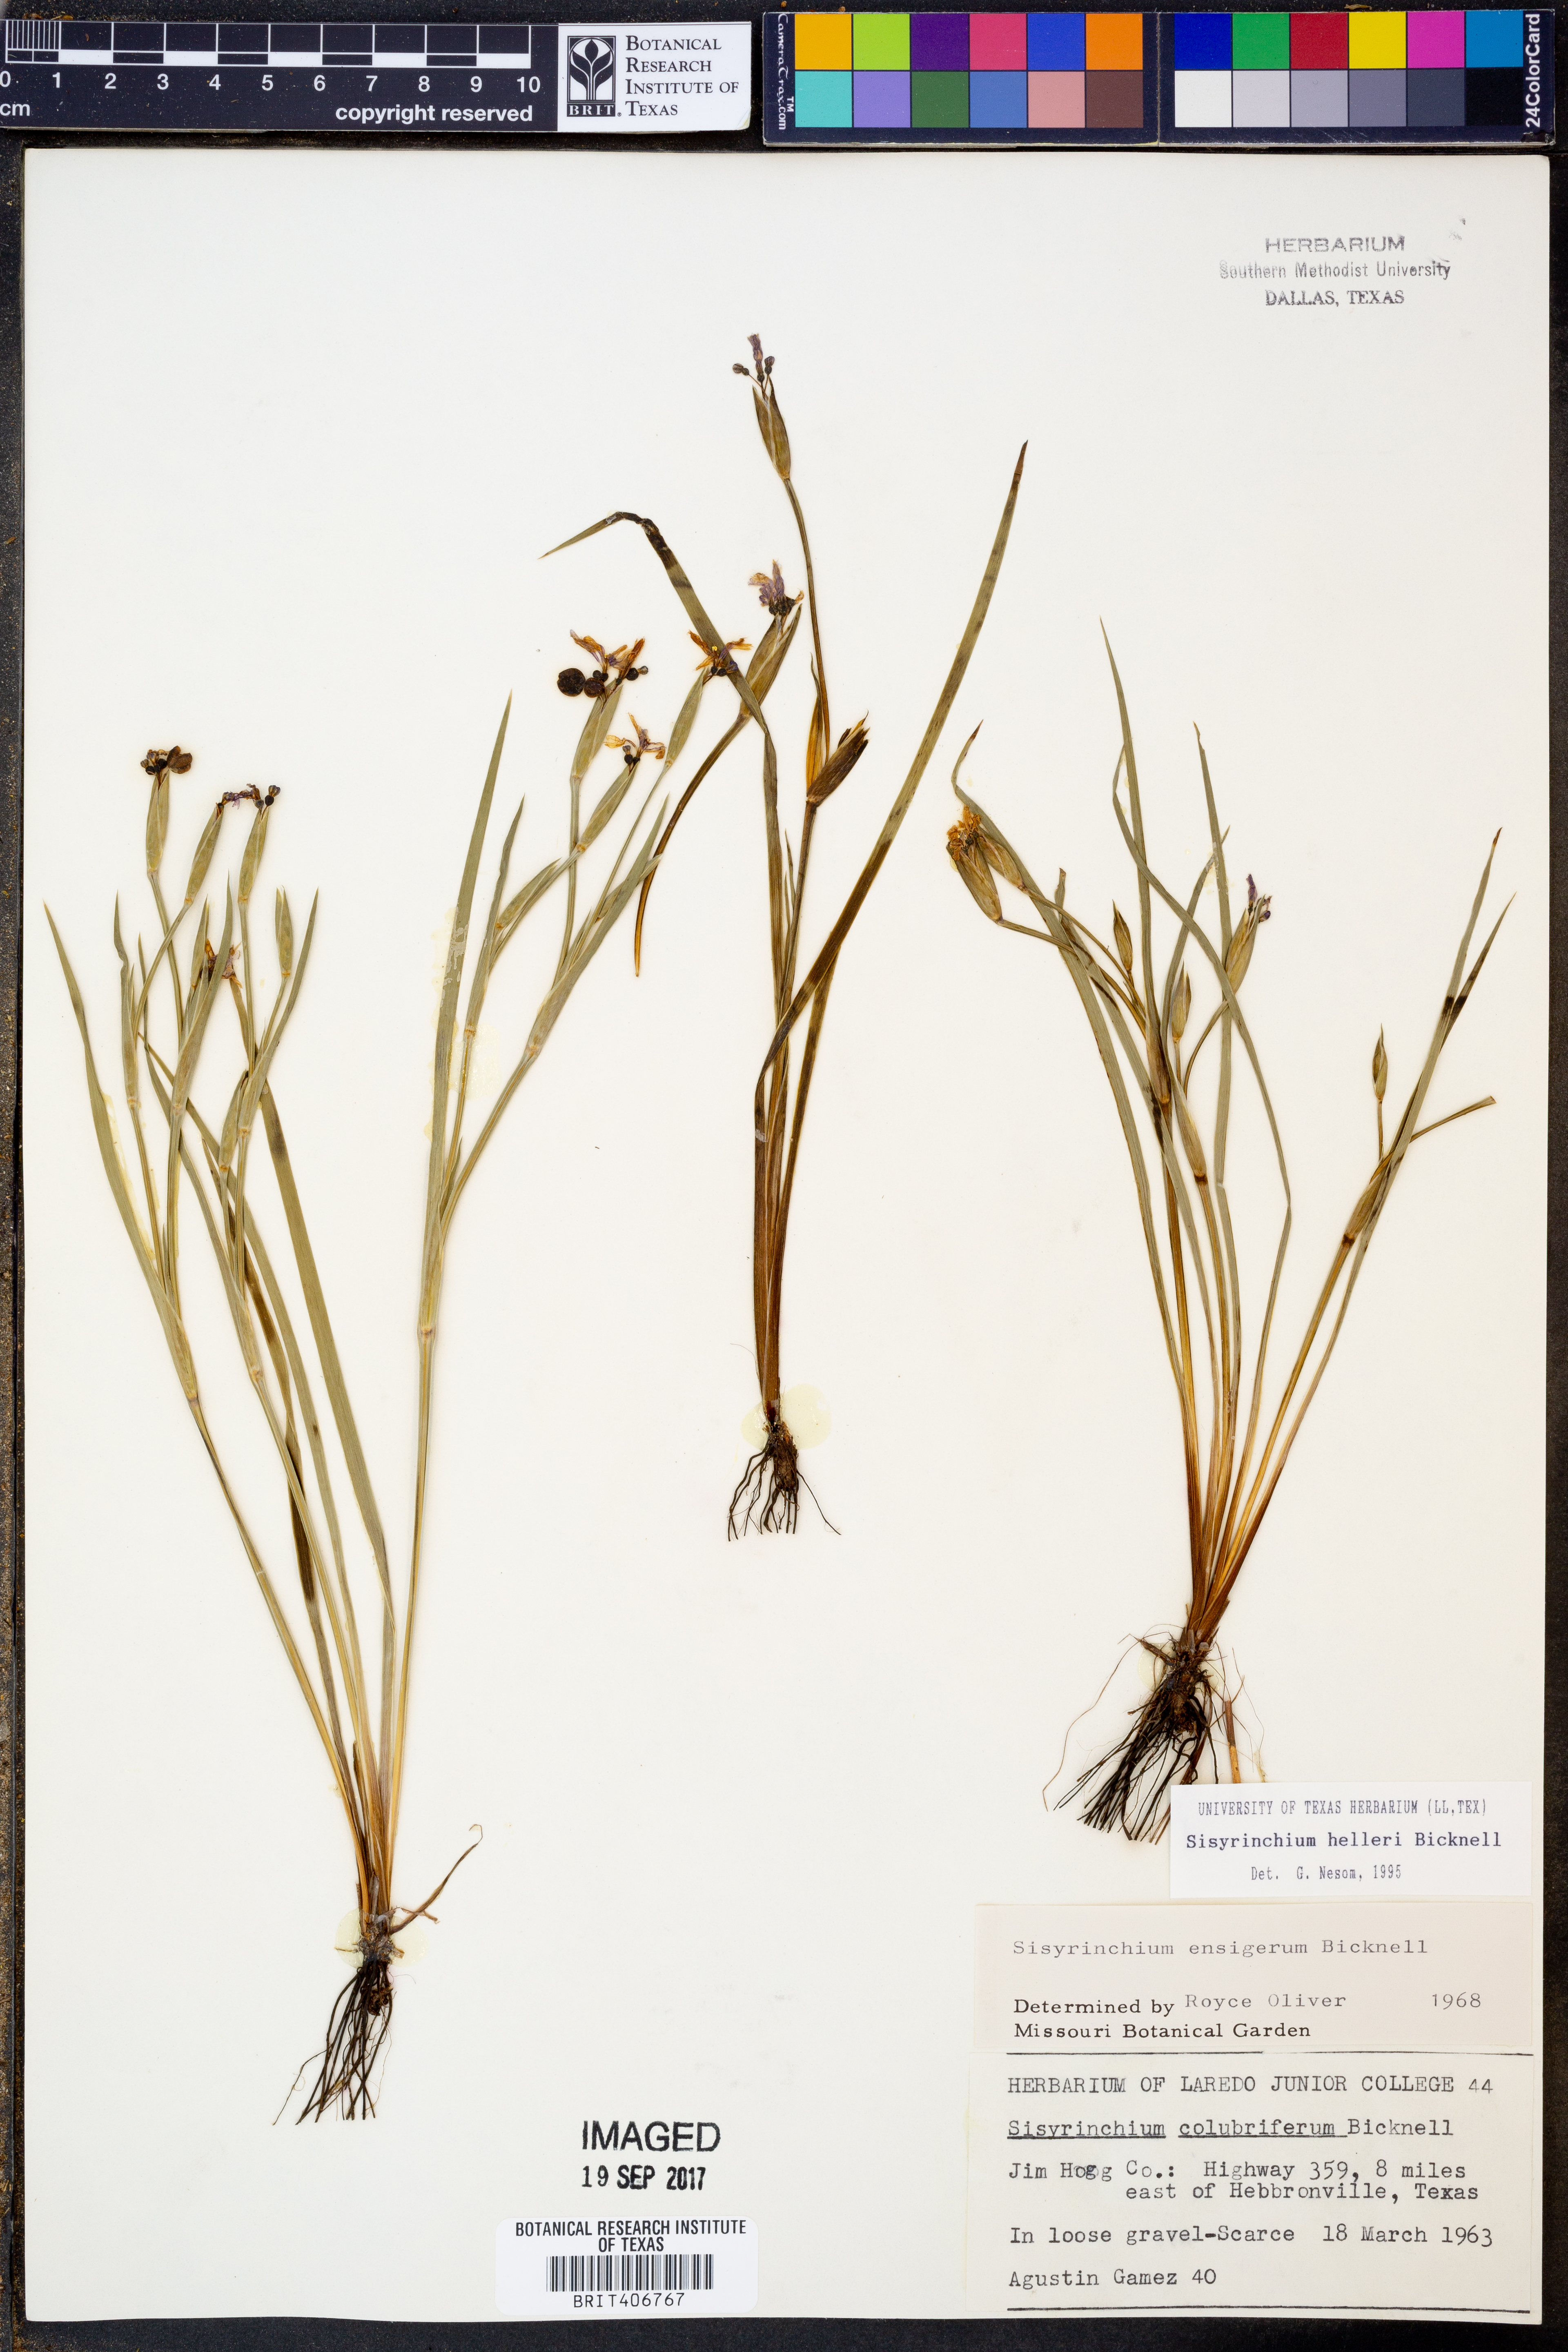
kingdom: Plantae
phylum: Tracheophyta
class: Liliopsida
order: Asparagales
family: Iridaceae
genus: Sisyrinchium
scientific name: Sisyrinchium pruinosum
